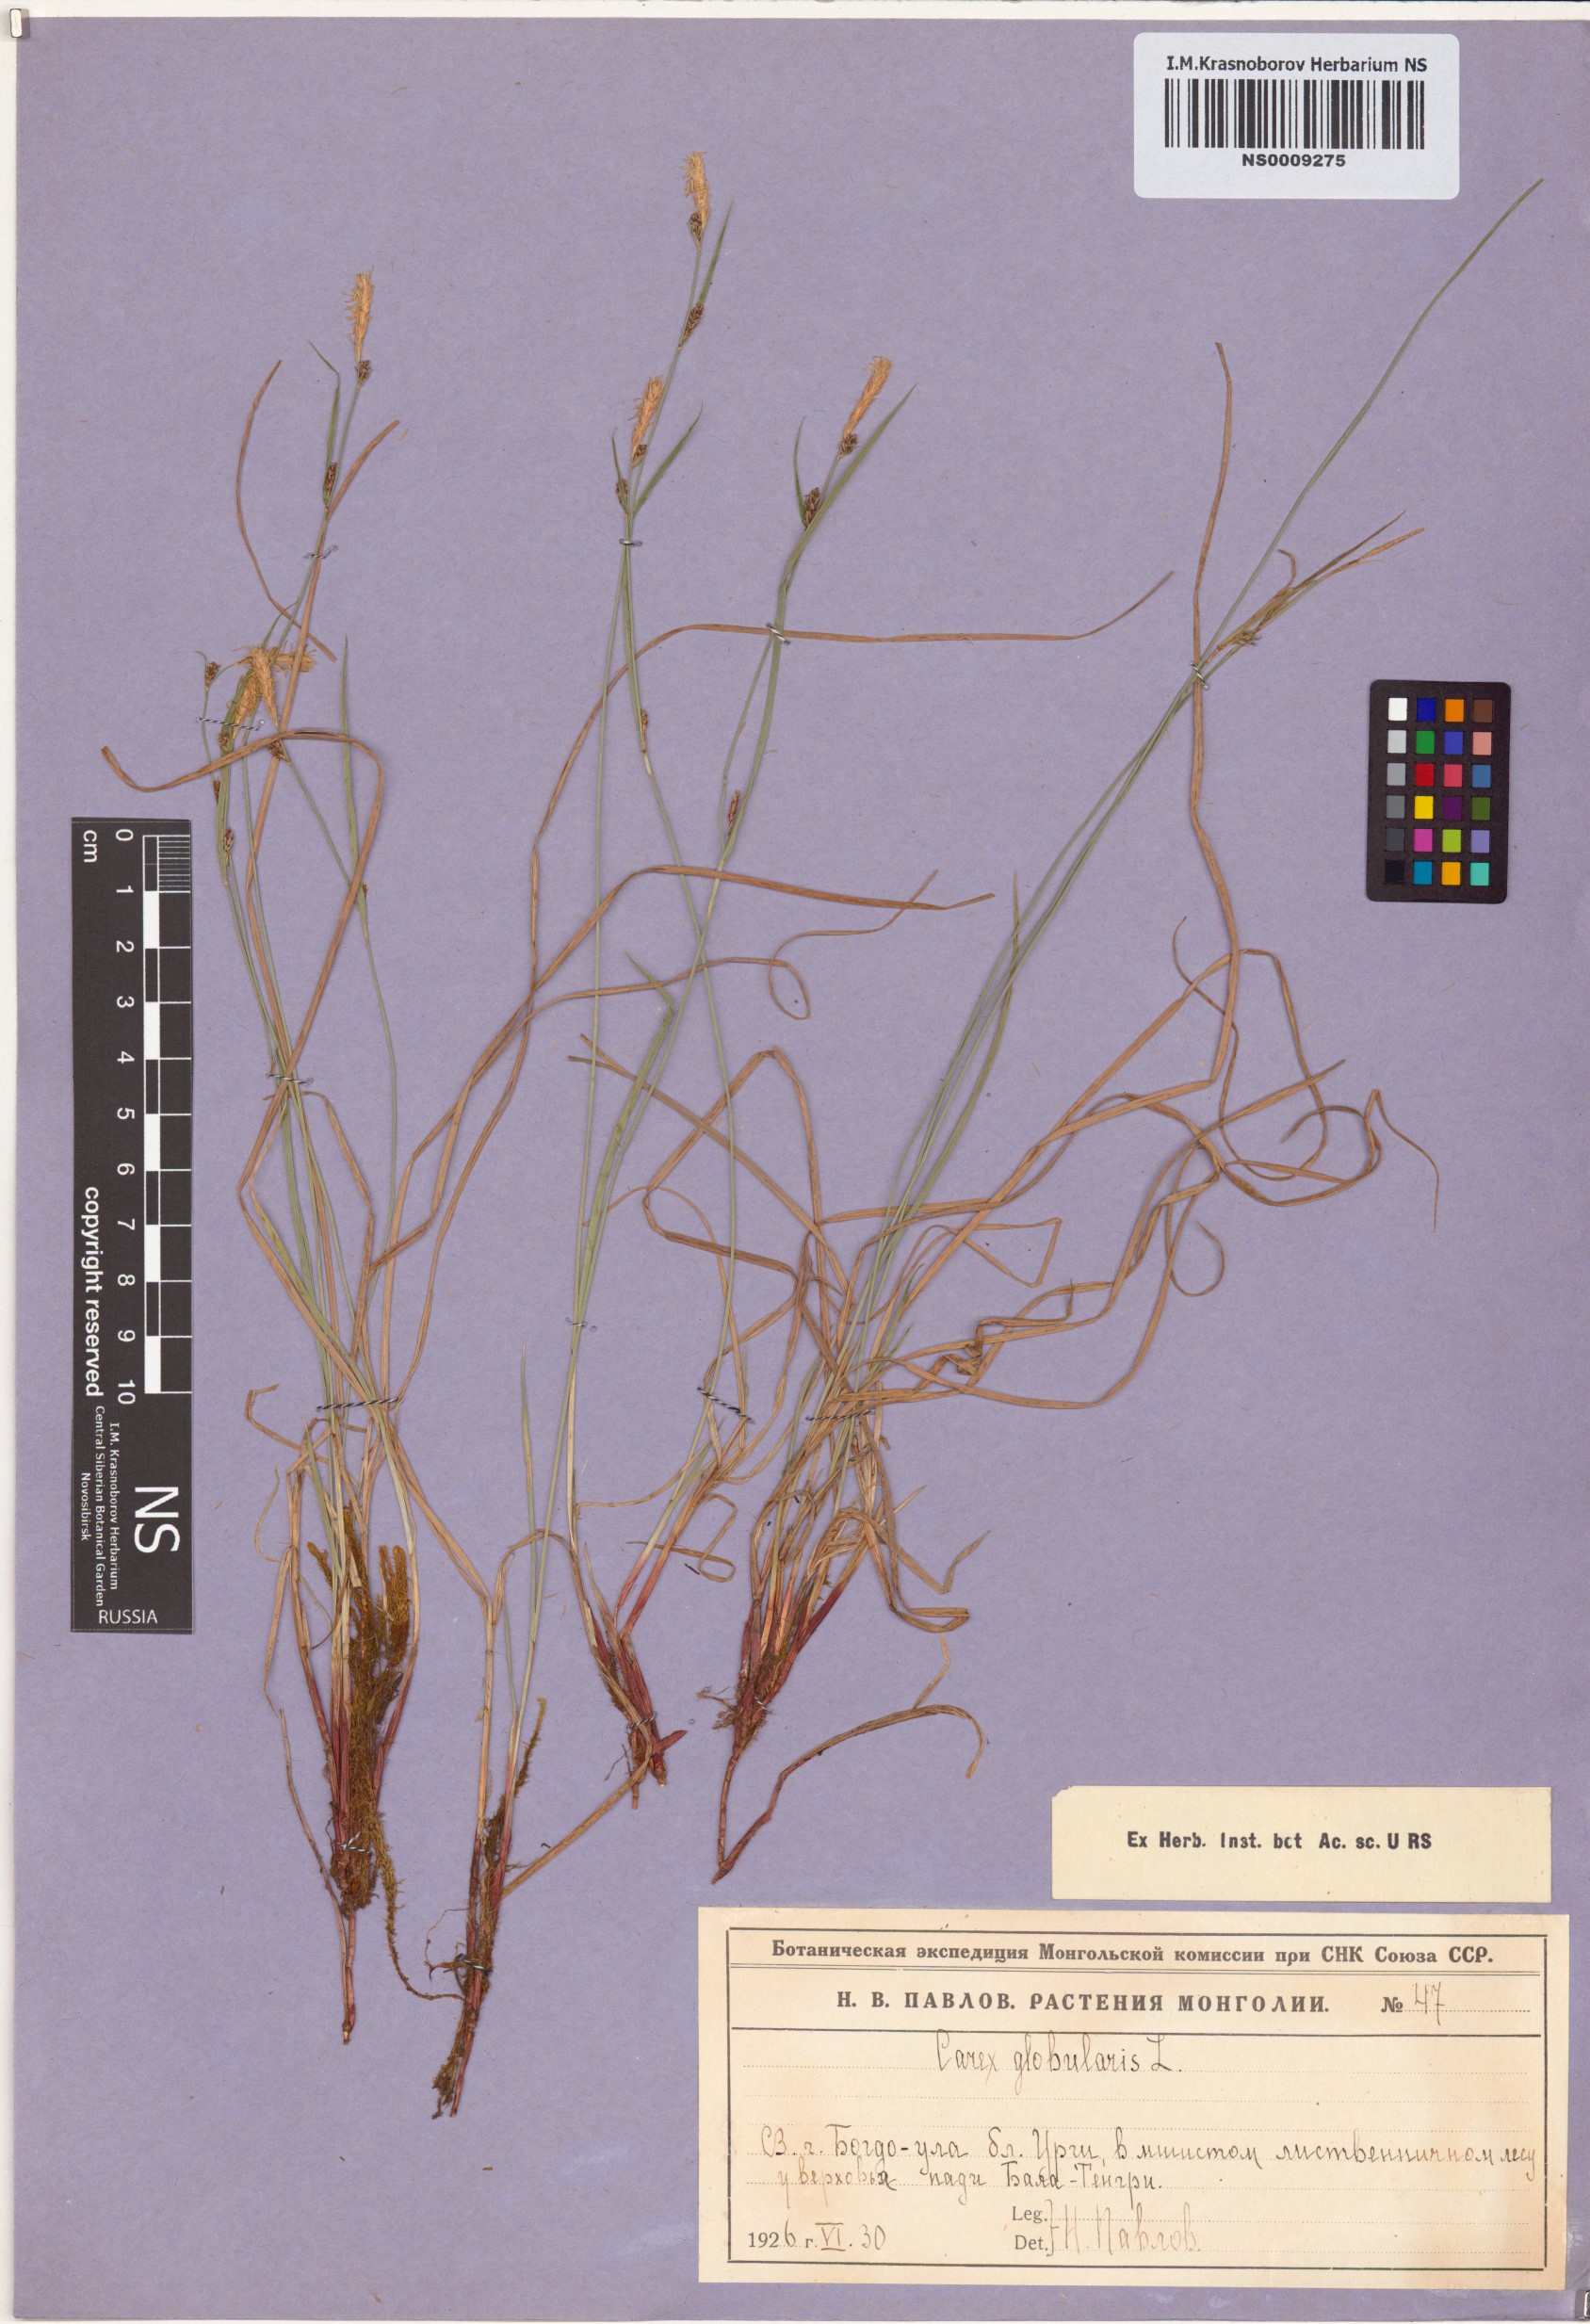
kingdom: Plantae
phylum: Tracheophyta
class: Liliopsida
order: Poales
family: Cyperaceae
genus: Carex
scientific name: Carex globularis
